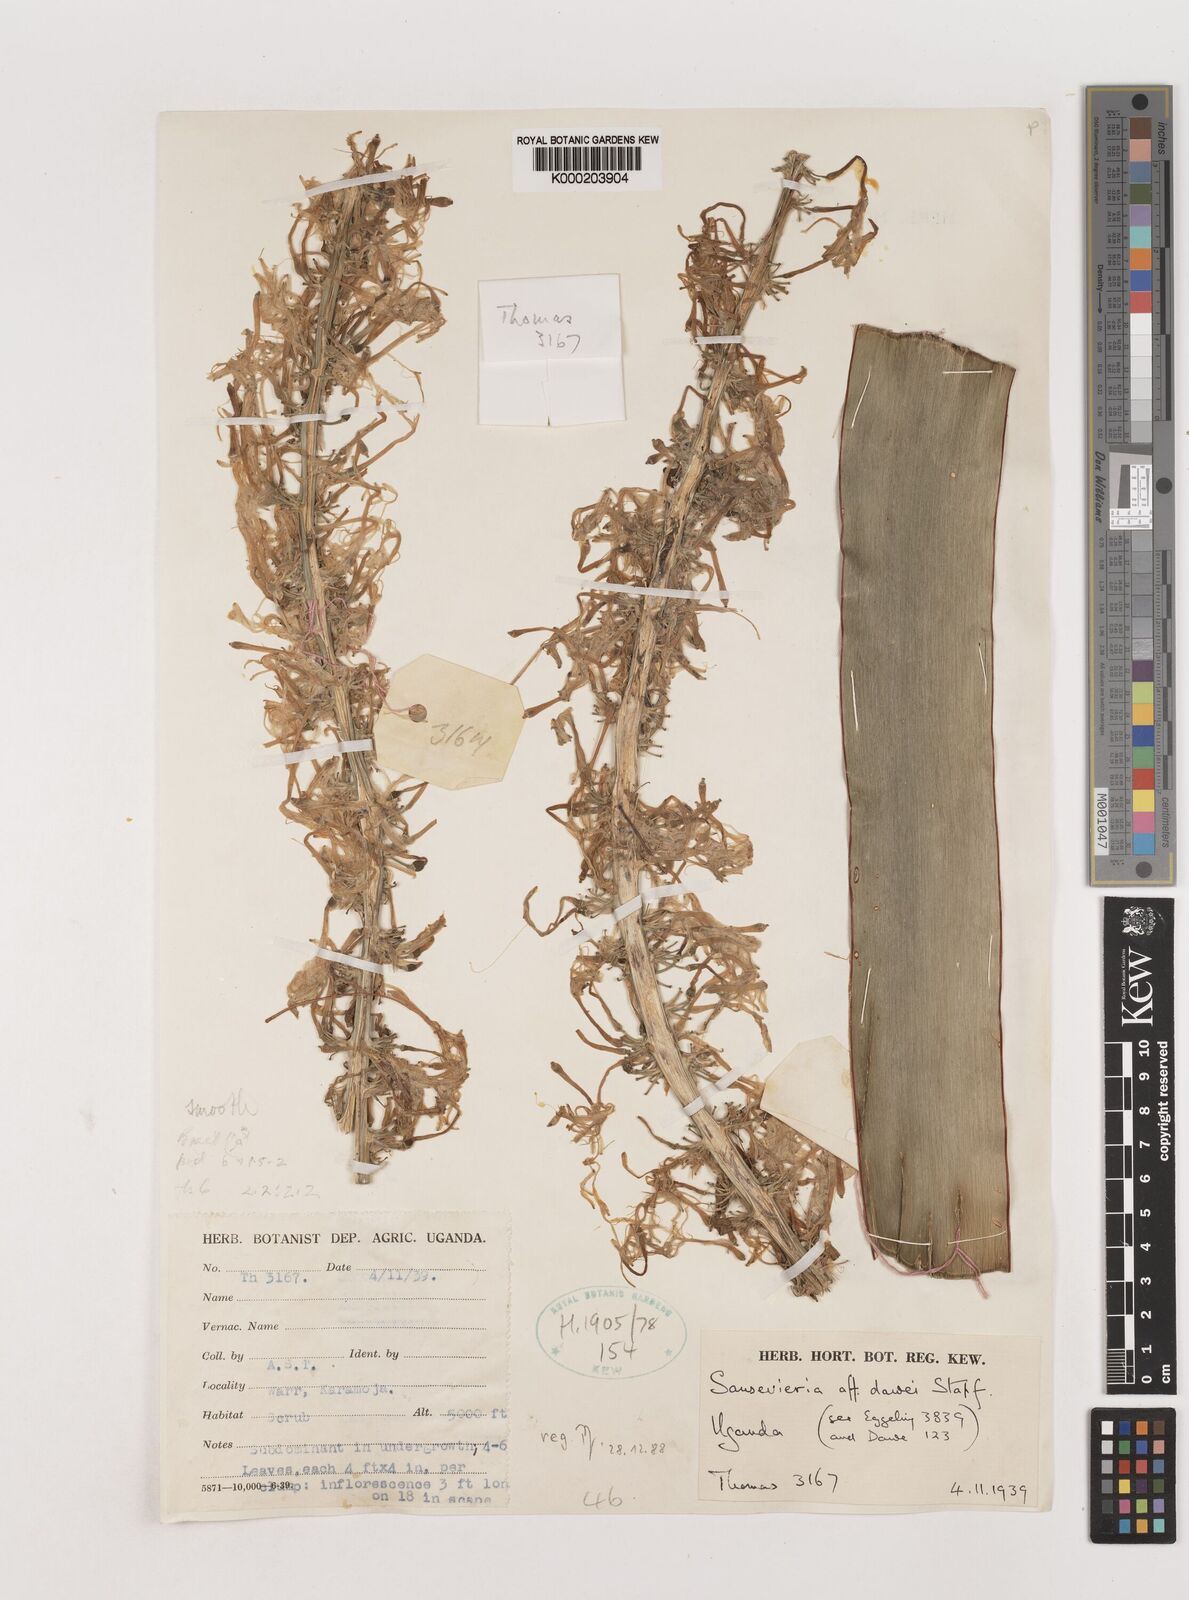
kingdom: Plantae
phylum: Tracheophyta
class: Liliopsida
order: Asparagales
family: Asparagaceae
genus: Dracaena
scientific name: Dracaena dawei
